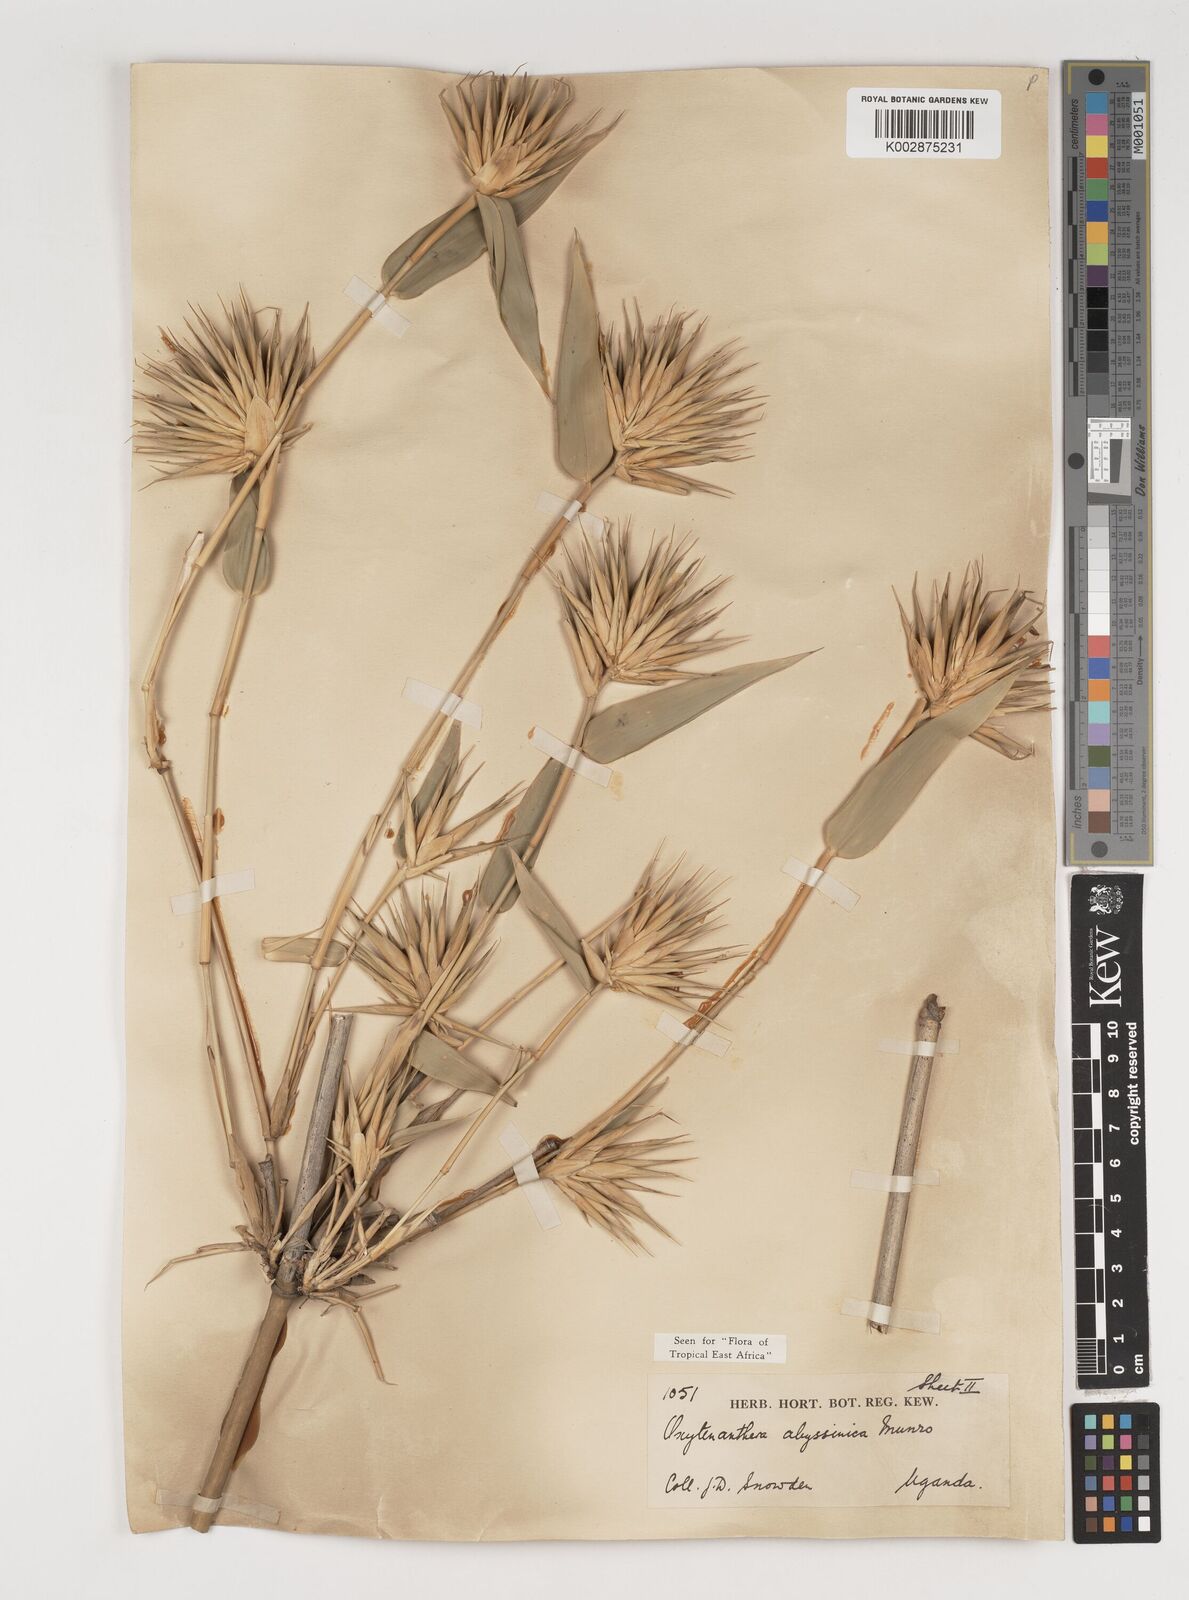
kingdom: Plantae
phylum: Tracheophyta
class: Liliopsida
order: Poales
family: Poaceae
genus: Oxytenanthera
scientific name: Oxytenanthera abyssinica
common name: Wine bamboo
